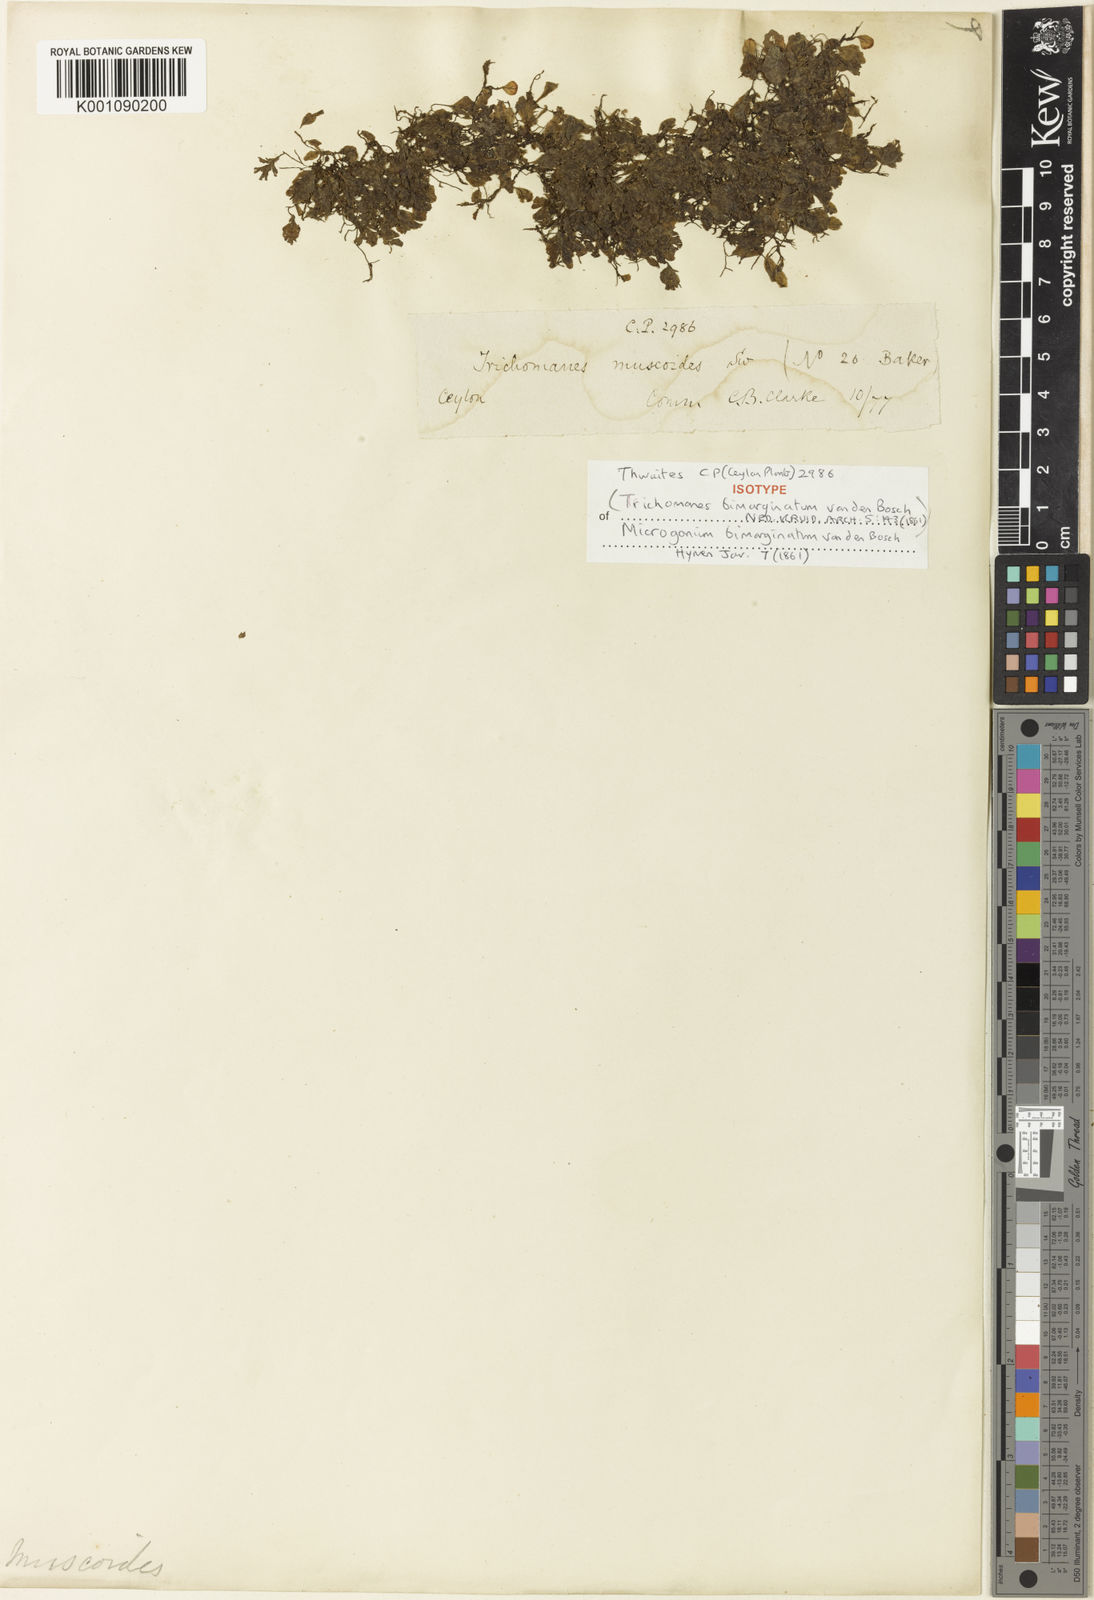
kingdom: Plantae
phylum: Tracheophyta
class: Polypodiopsida
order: Hymenophyllales
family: Hymenophyllaceae
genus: Didymoglossum
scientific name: Didymoglossum bimarginatum
